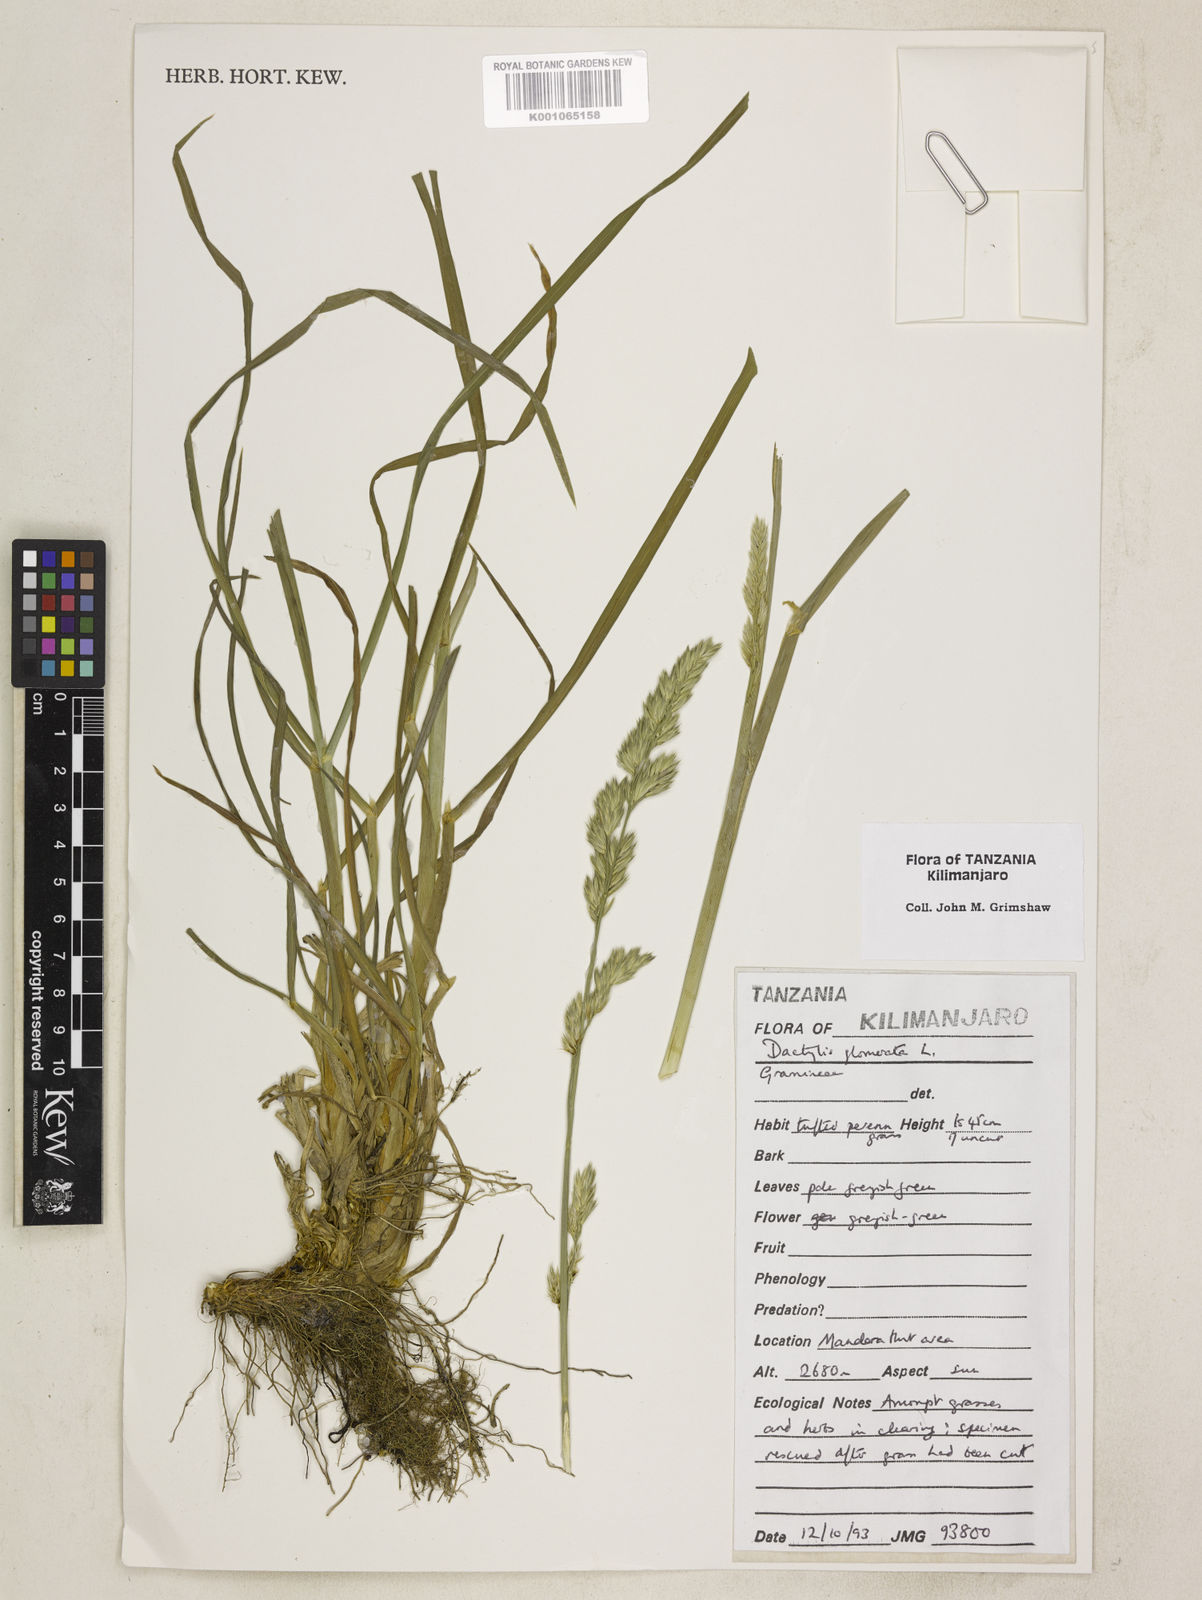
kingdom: Plantae
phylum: Tracheophyta
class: Liliopsida
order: Poales
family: Poaceae
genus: Dactylis
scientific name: Dactylis glomerata
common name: Orchardgrass
